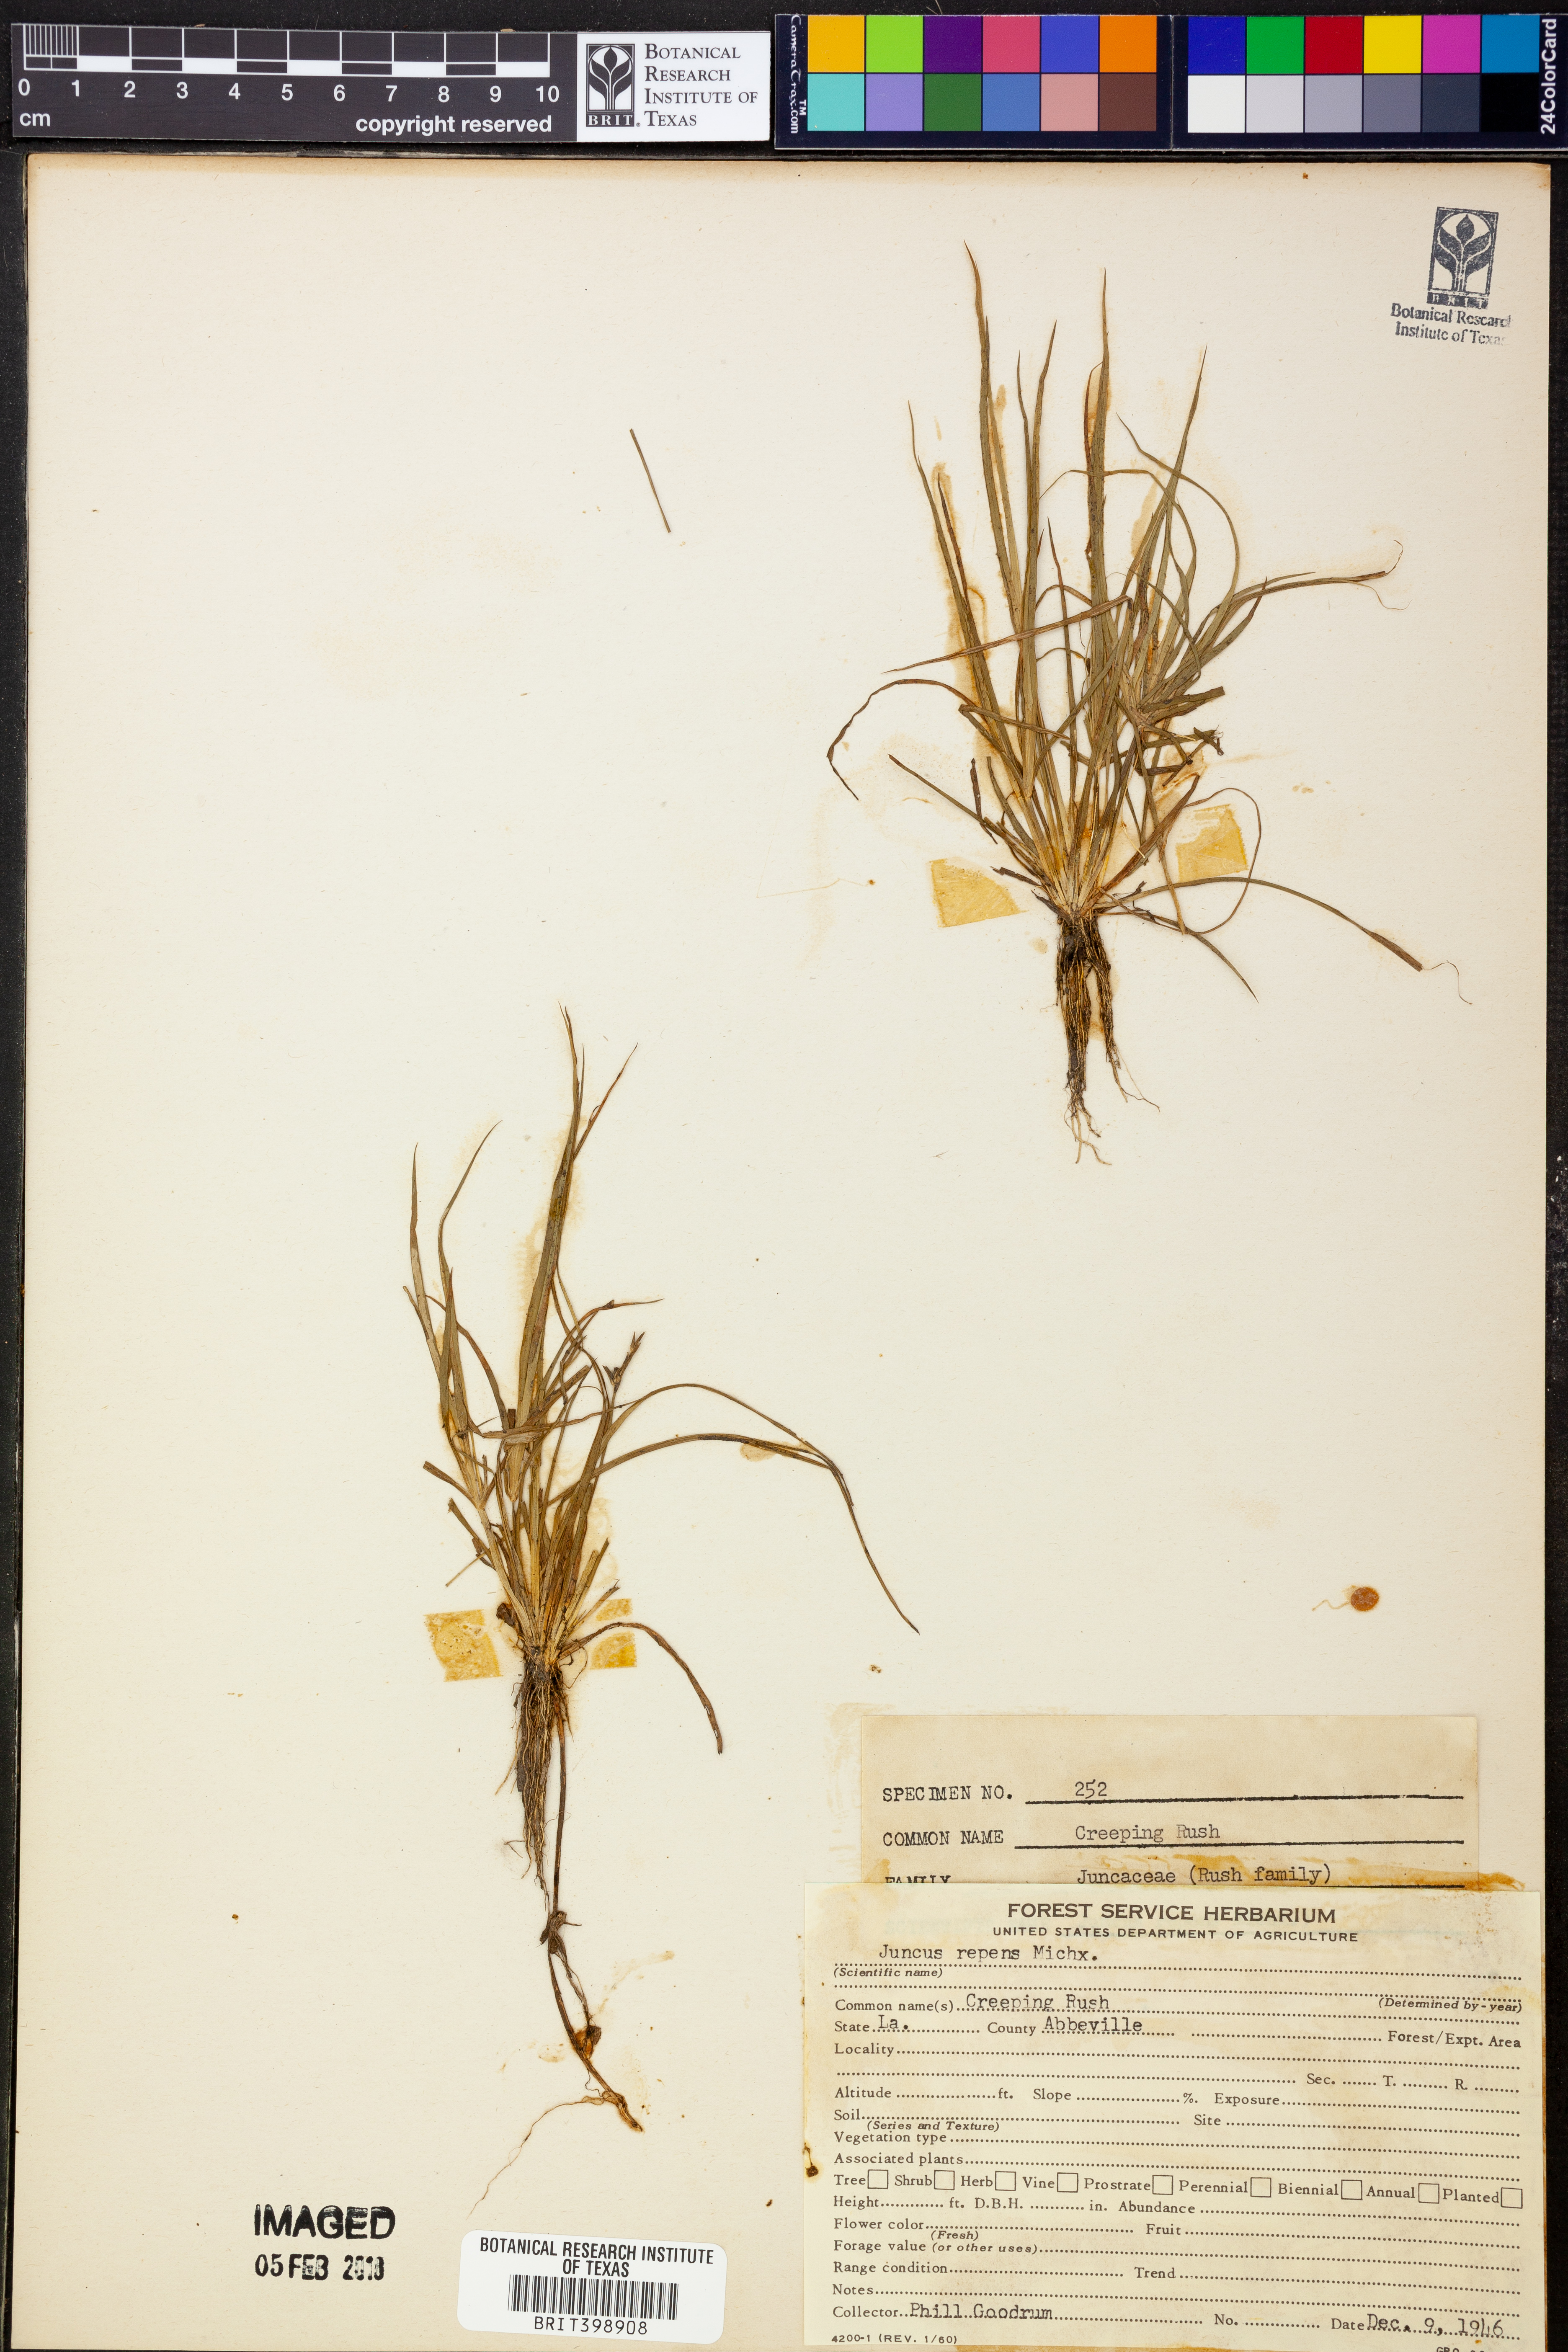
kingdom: Plantae
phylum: Tracheophyta
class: Liliopsida
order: Poales
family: Juncaceae
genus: Juncus
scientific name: Juncus repens
